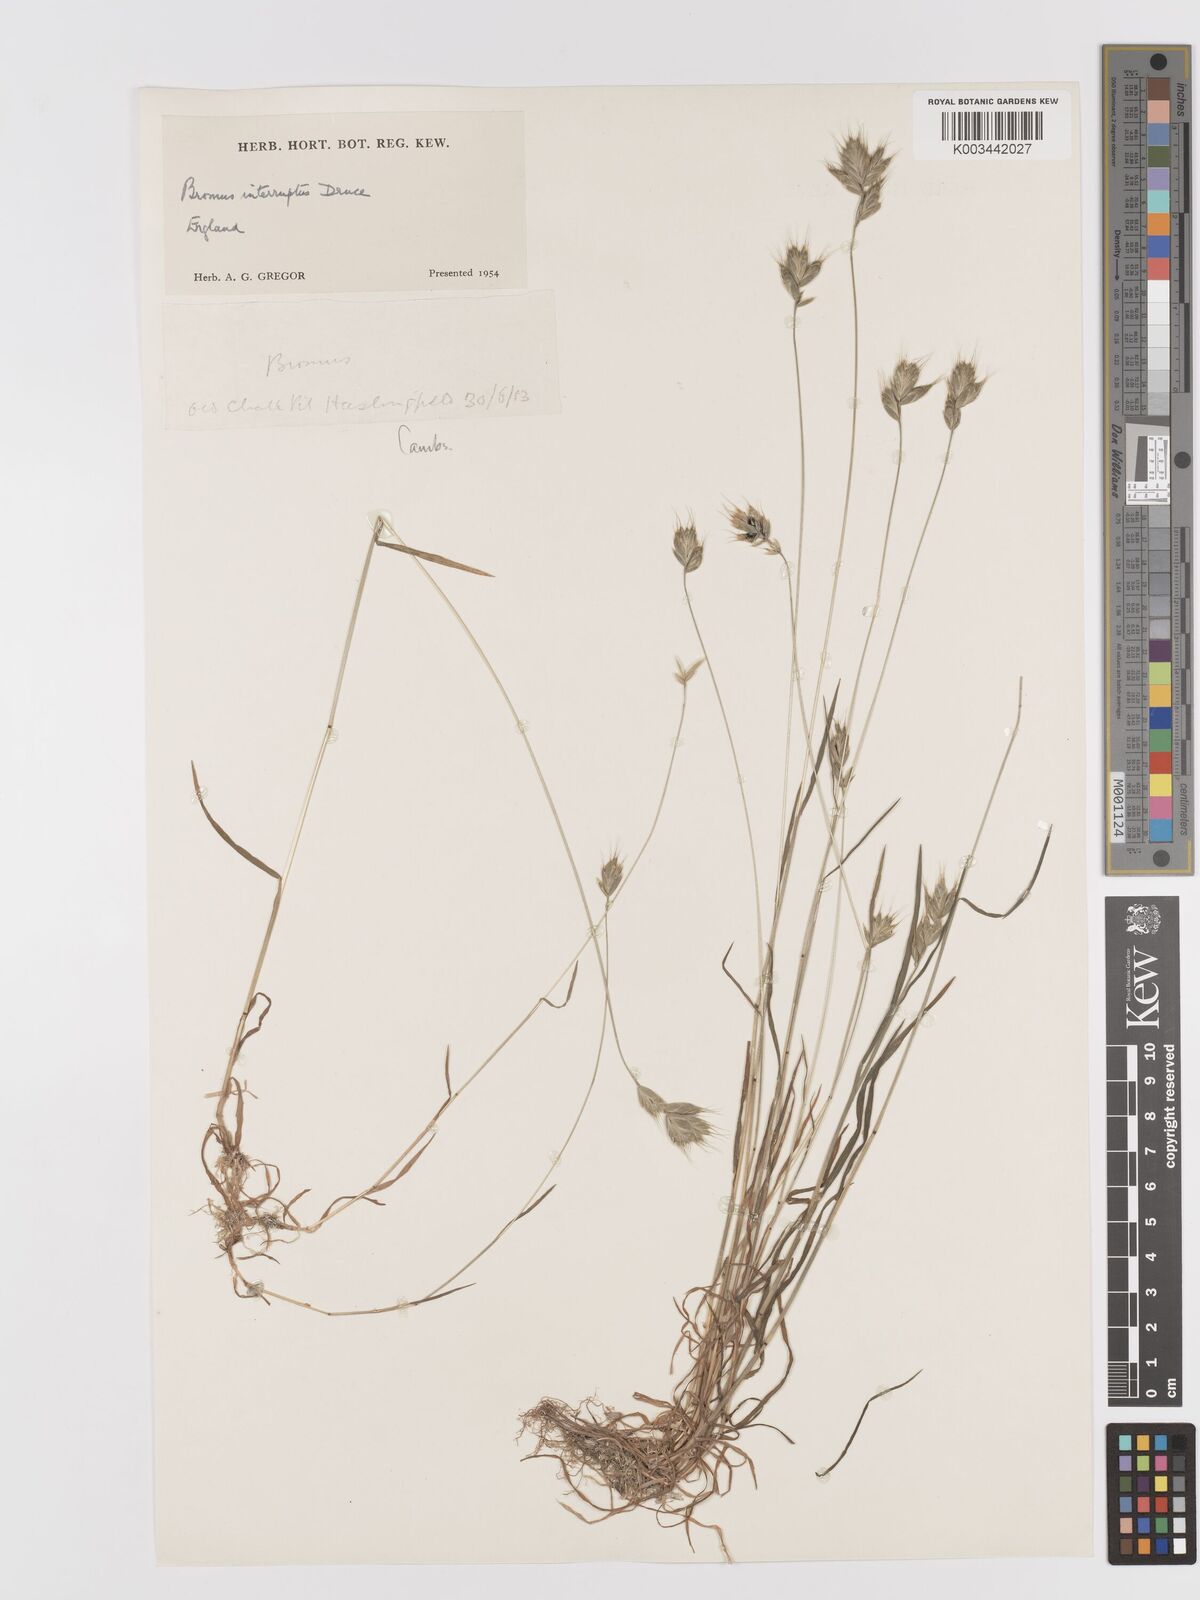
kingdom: Plantae
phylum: Tracheophyta
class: Liliopsida
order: Poales
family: Poaceae
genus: Bromus
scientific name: Bromus interruptus
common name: Interrupted brome
